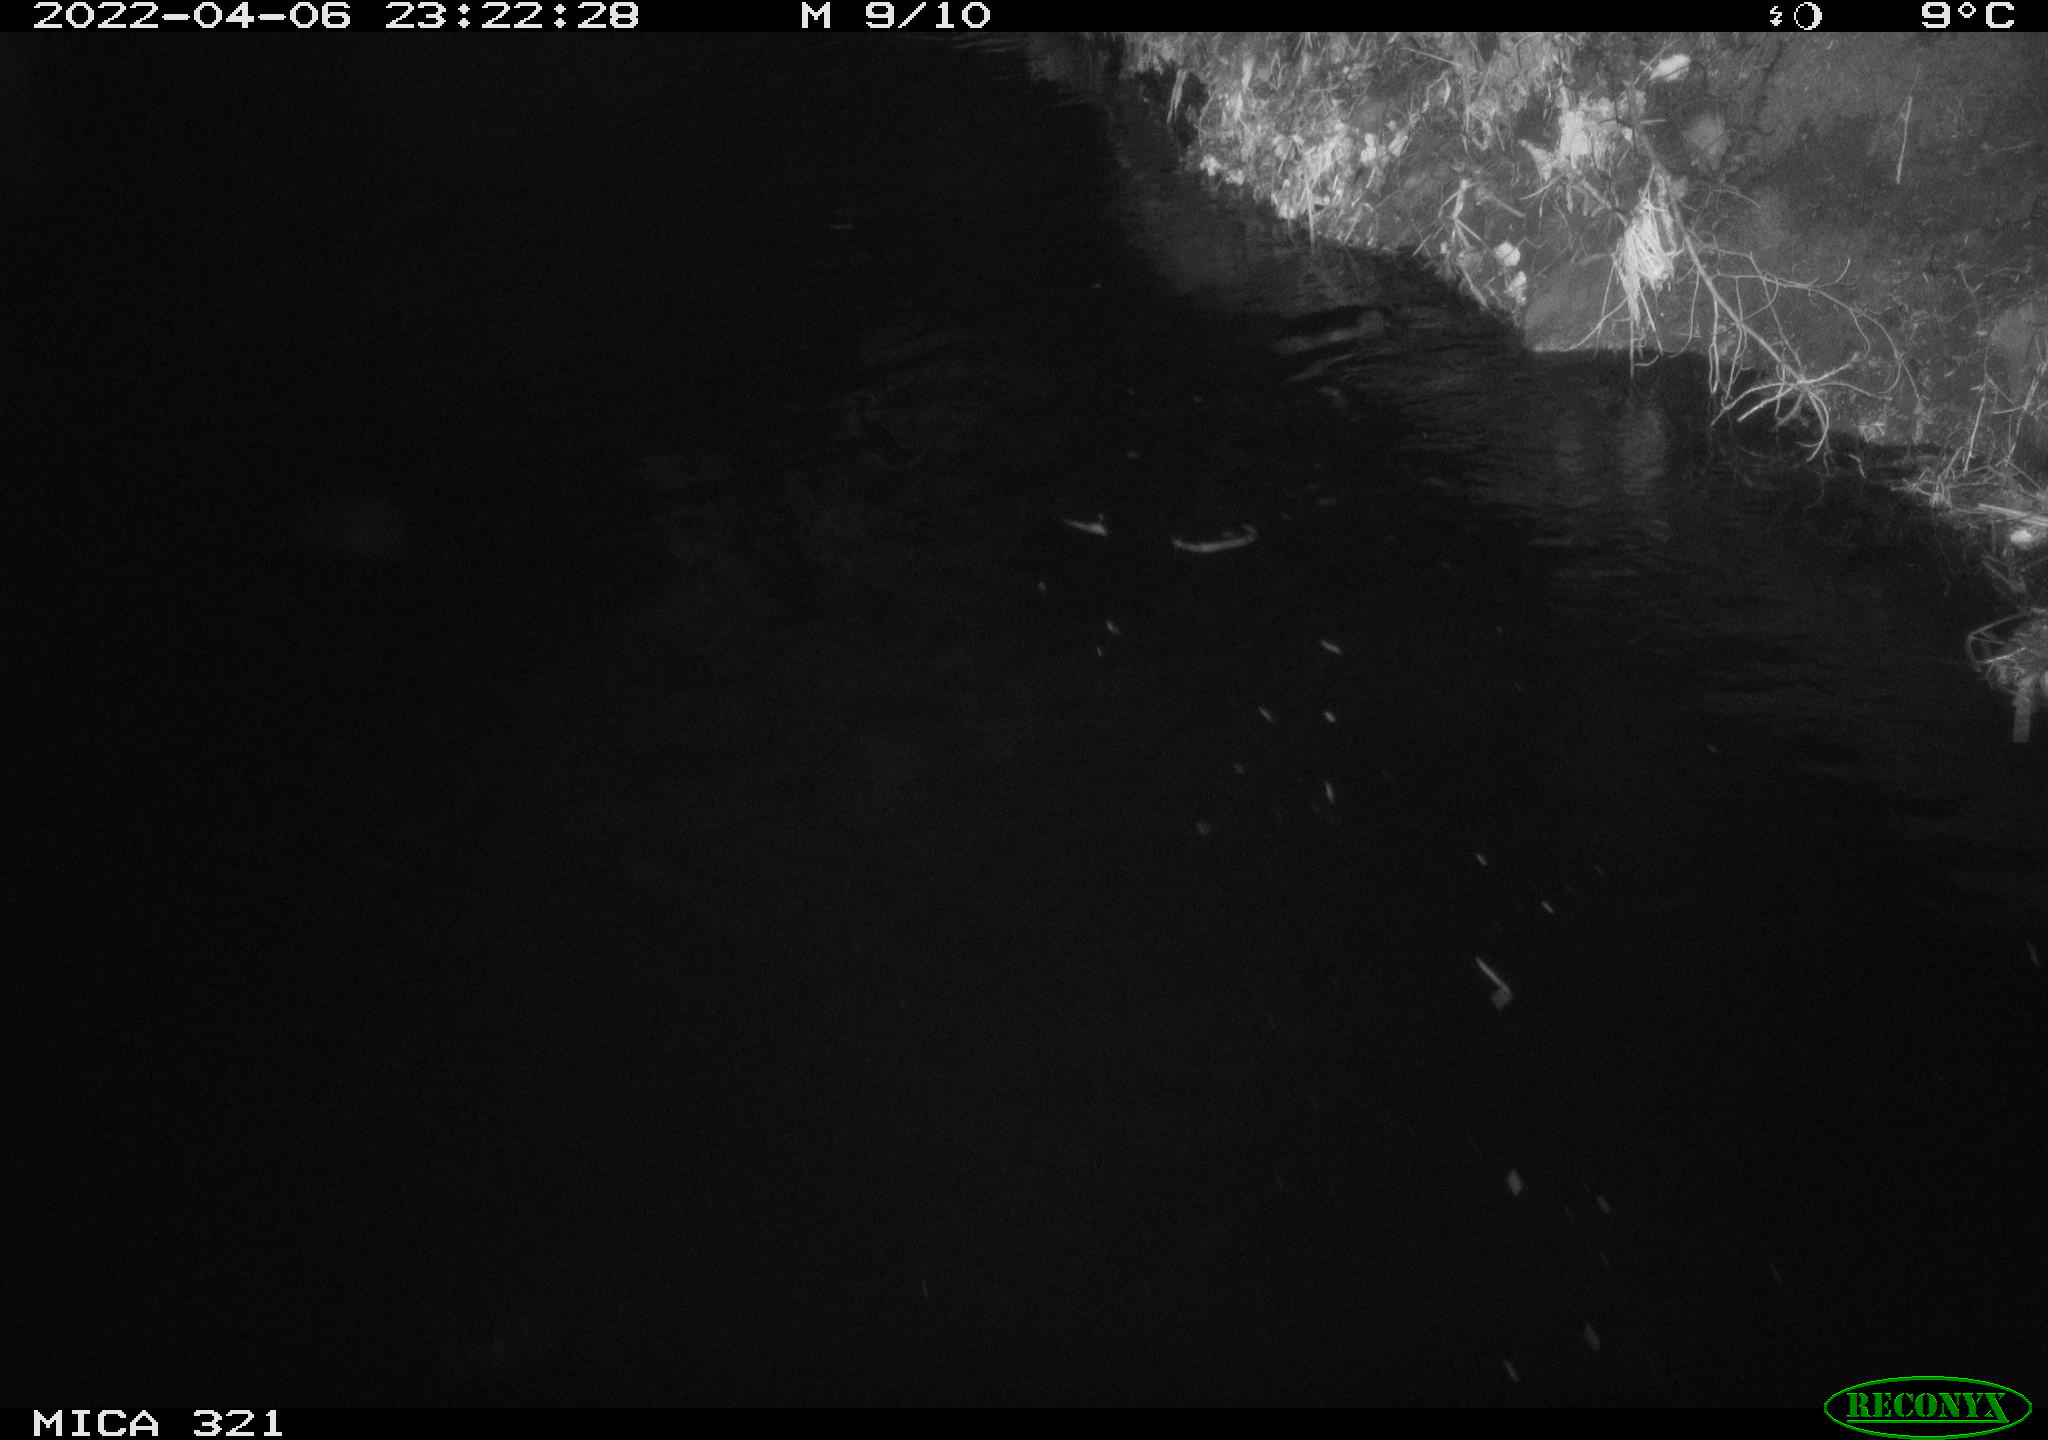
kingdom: Animalia
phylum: Chordata
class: Aves
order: Anseriformes
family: Anatidae
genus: Anas
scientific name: Anas platyrhynchos
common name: Mallard
